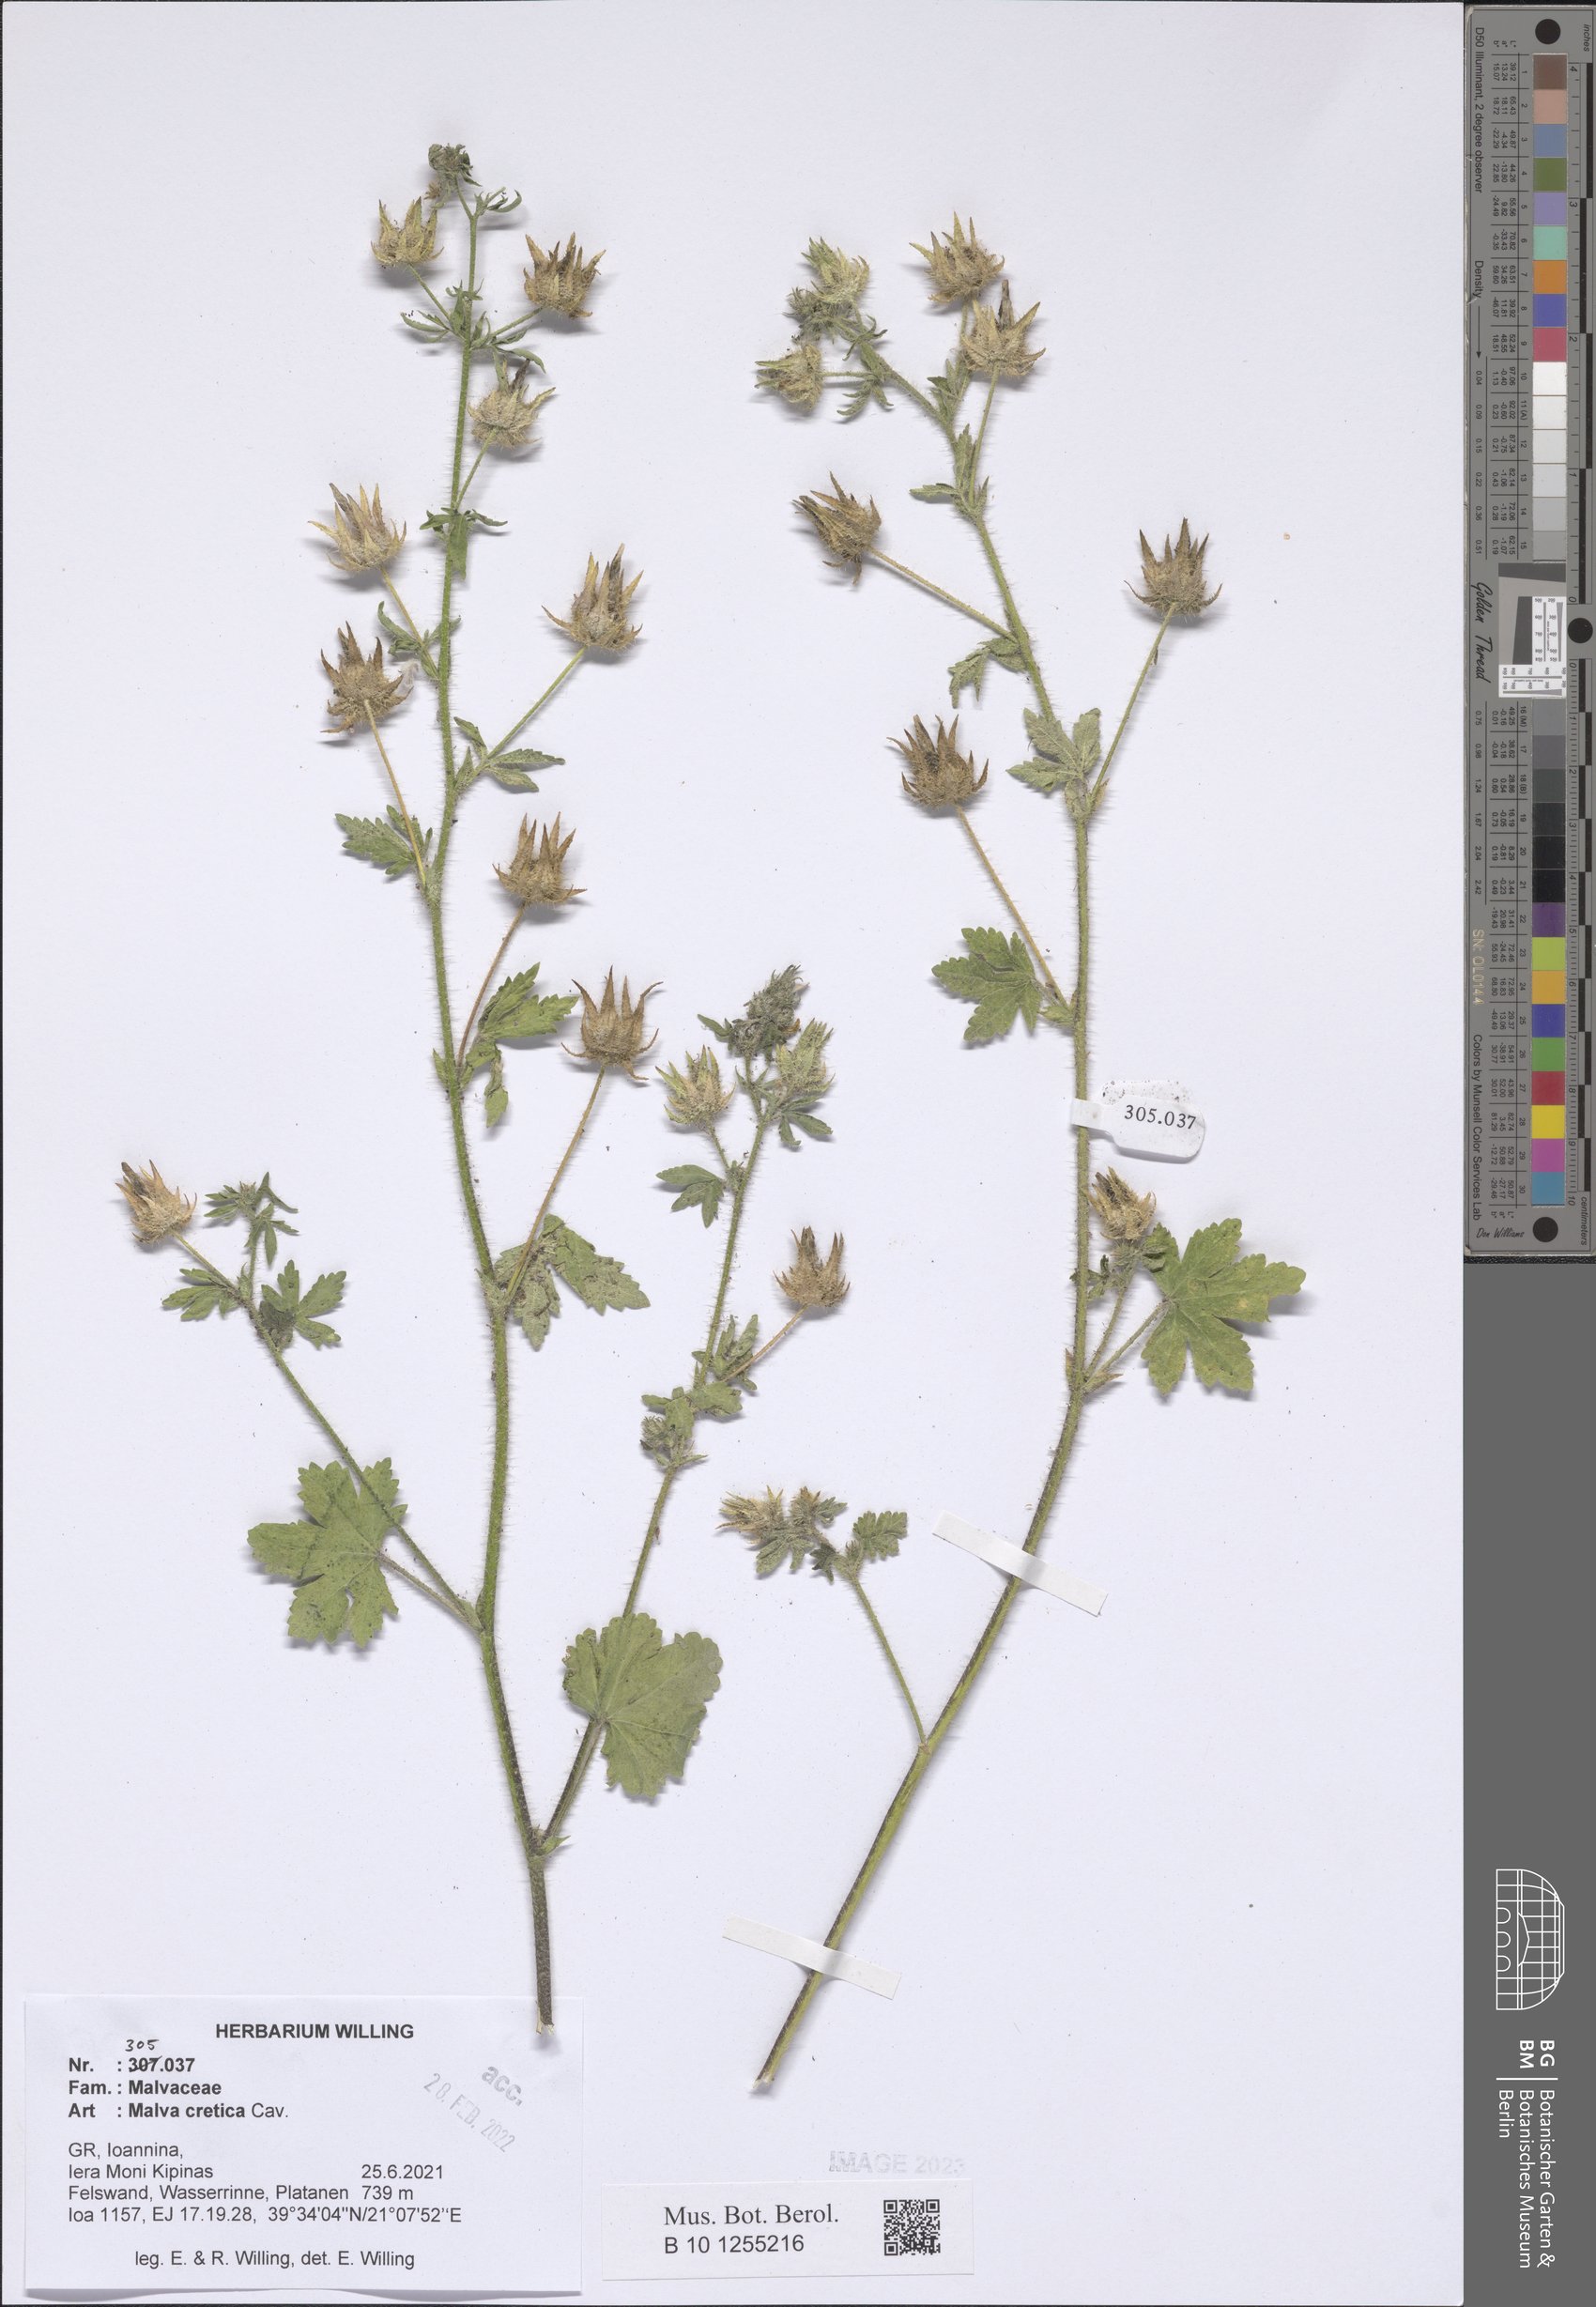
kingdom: Plantae
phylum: Tracheophyta
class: Magnoliopsida
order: Malvales
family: Malvaceae
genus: Malva
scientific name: Malva cretica
